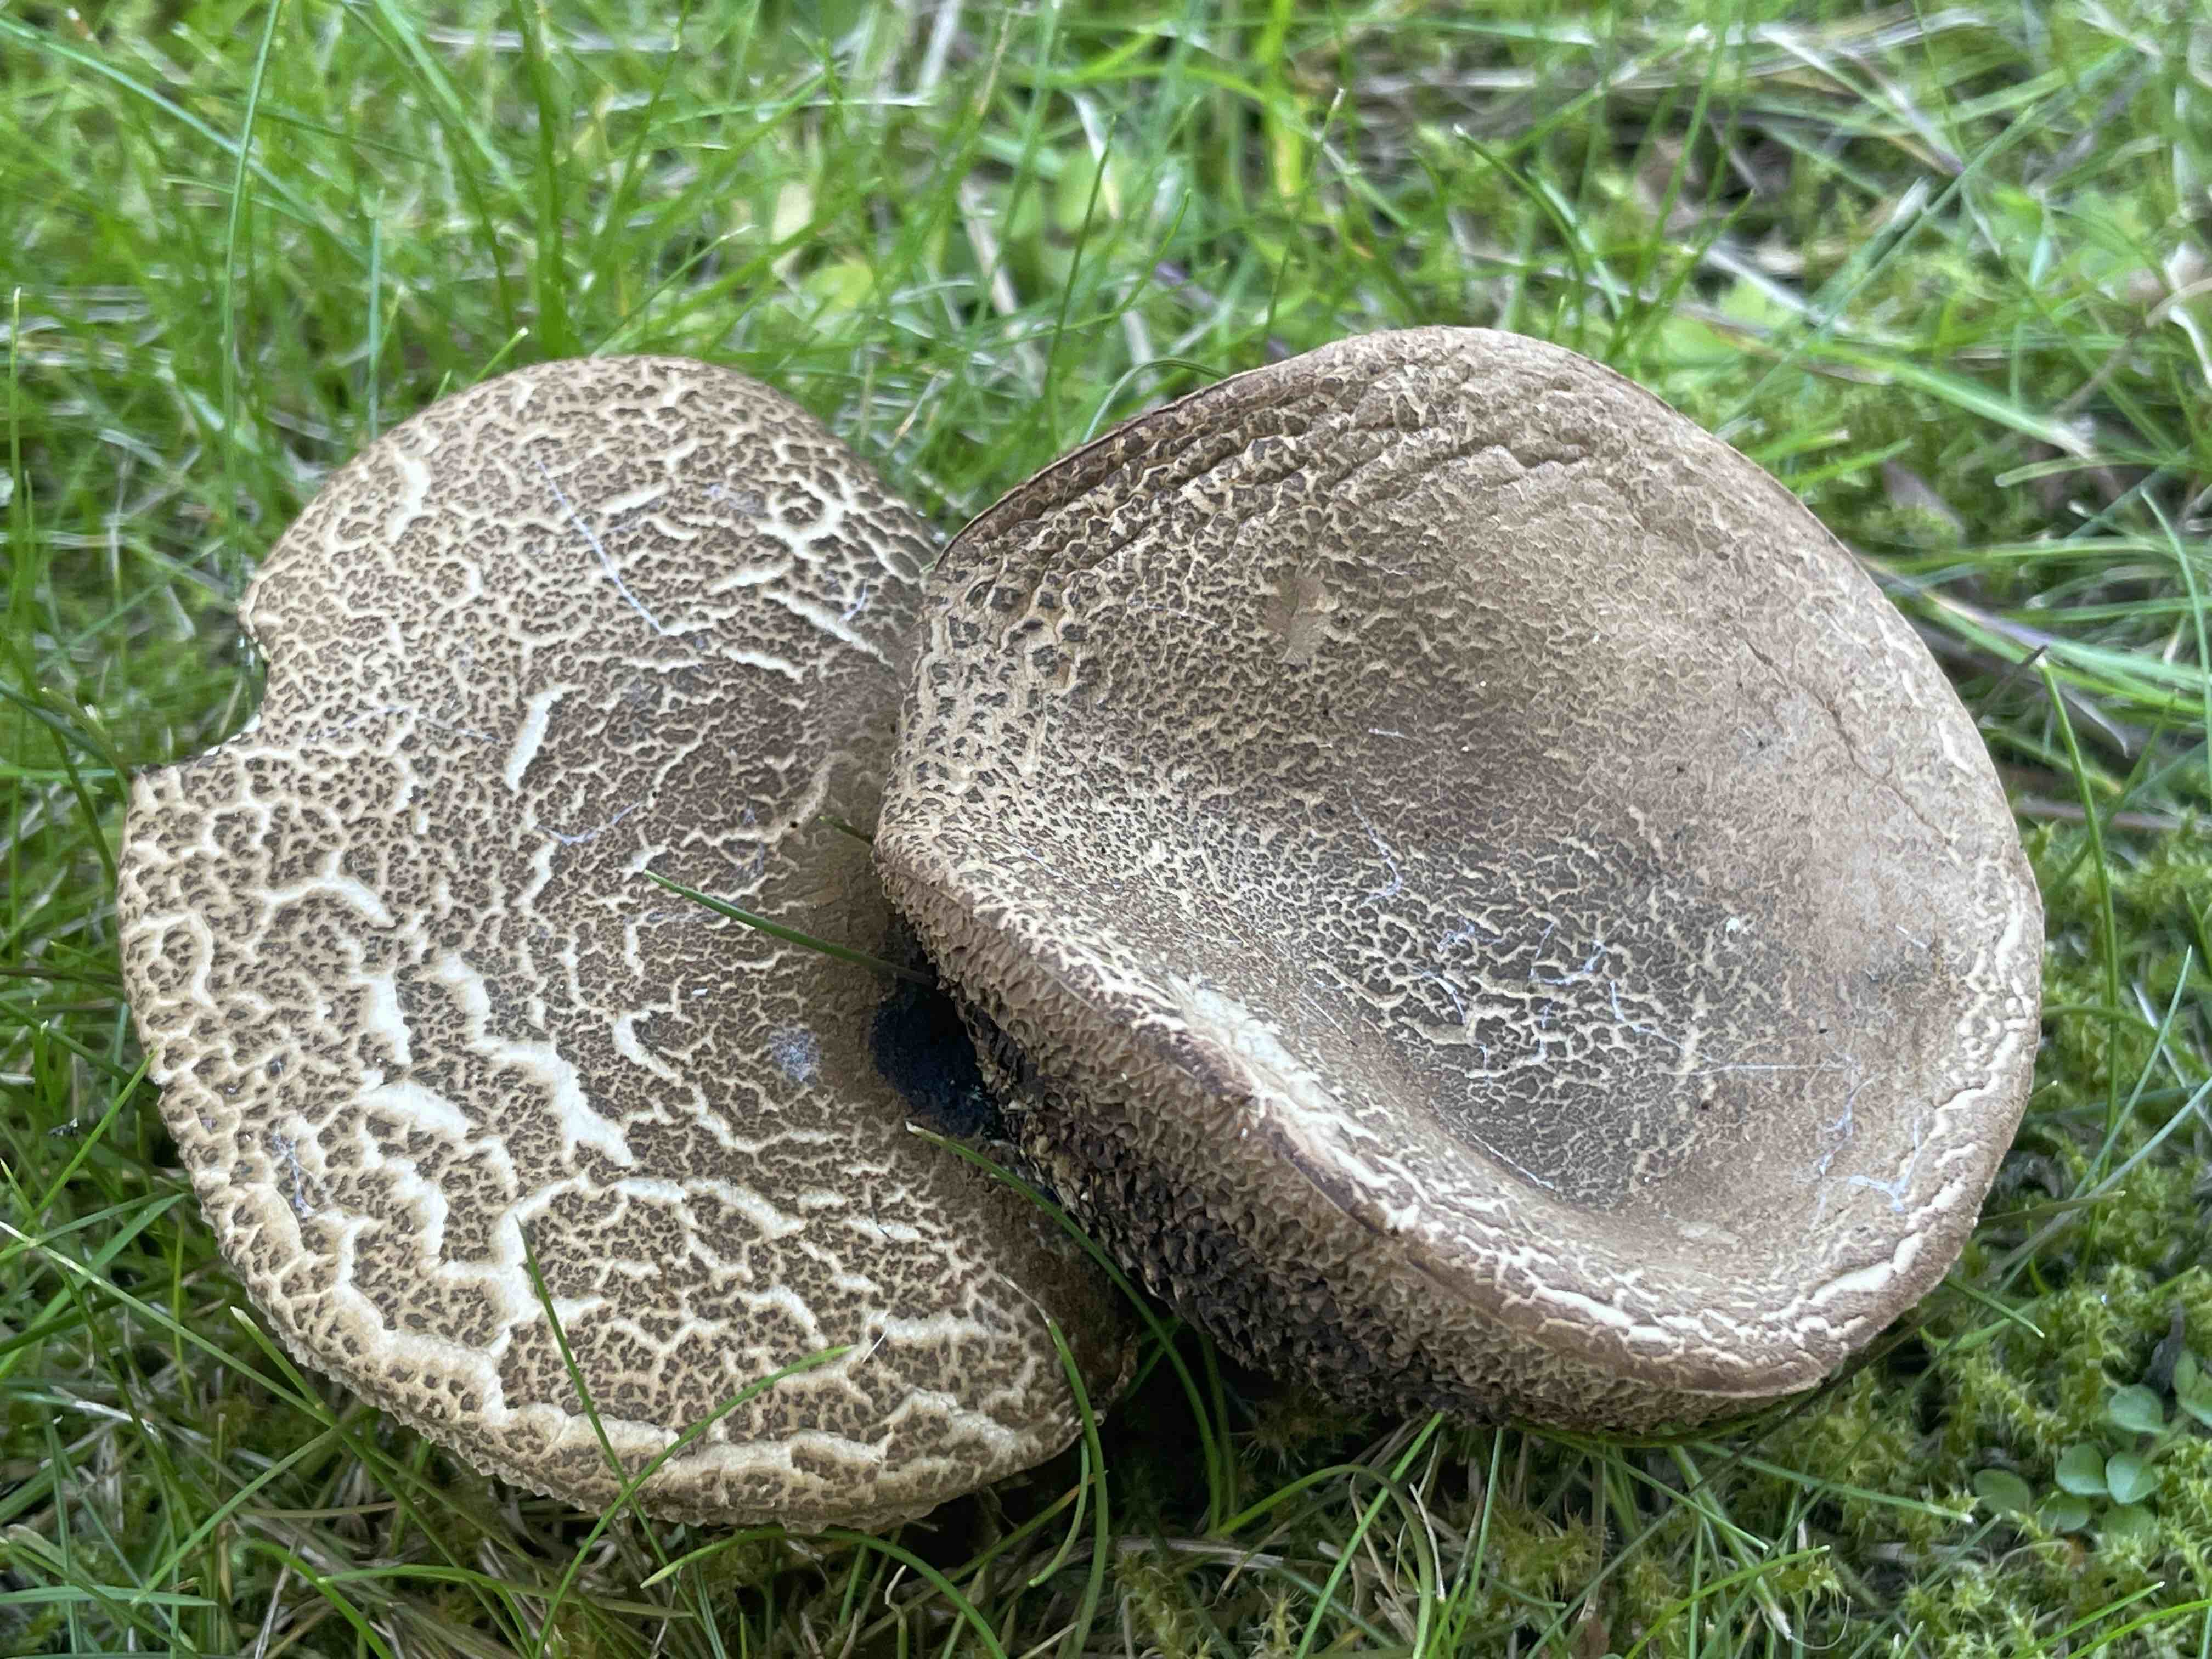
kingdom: Fungi
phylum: Basidiomycota
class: Agaricomycetes
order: Boletales
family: Boletaceae
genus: Xerocomellus
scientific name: Xerocomellus porosporus
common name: hvidsprukken rørhat
